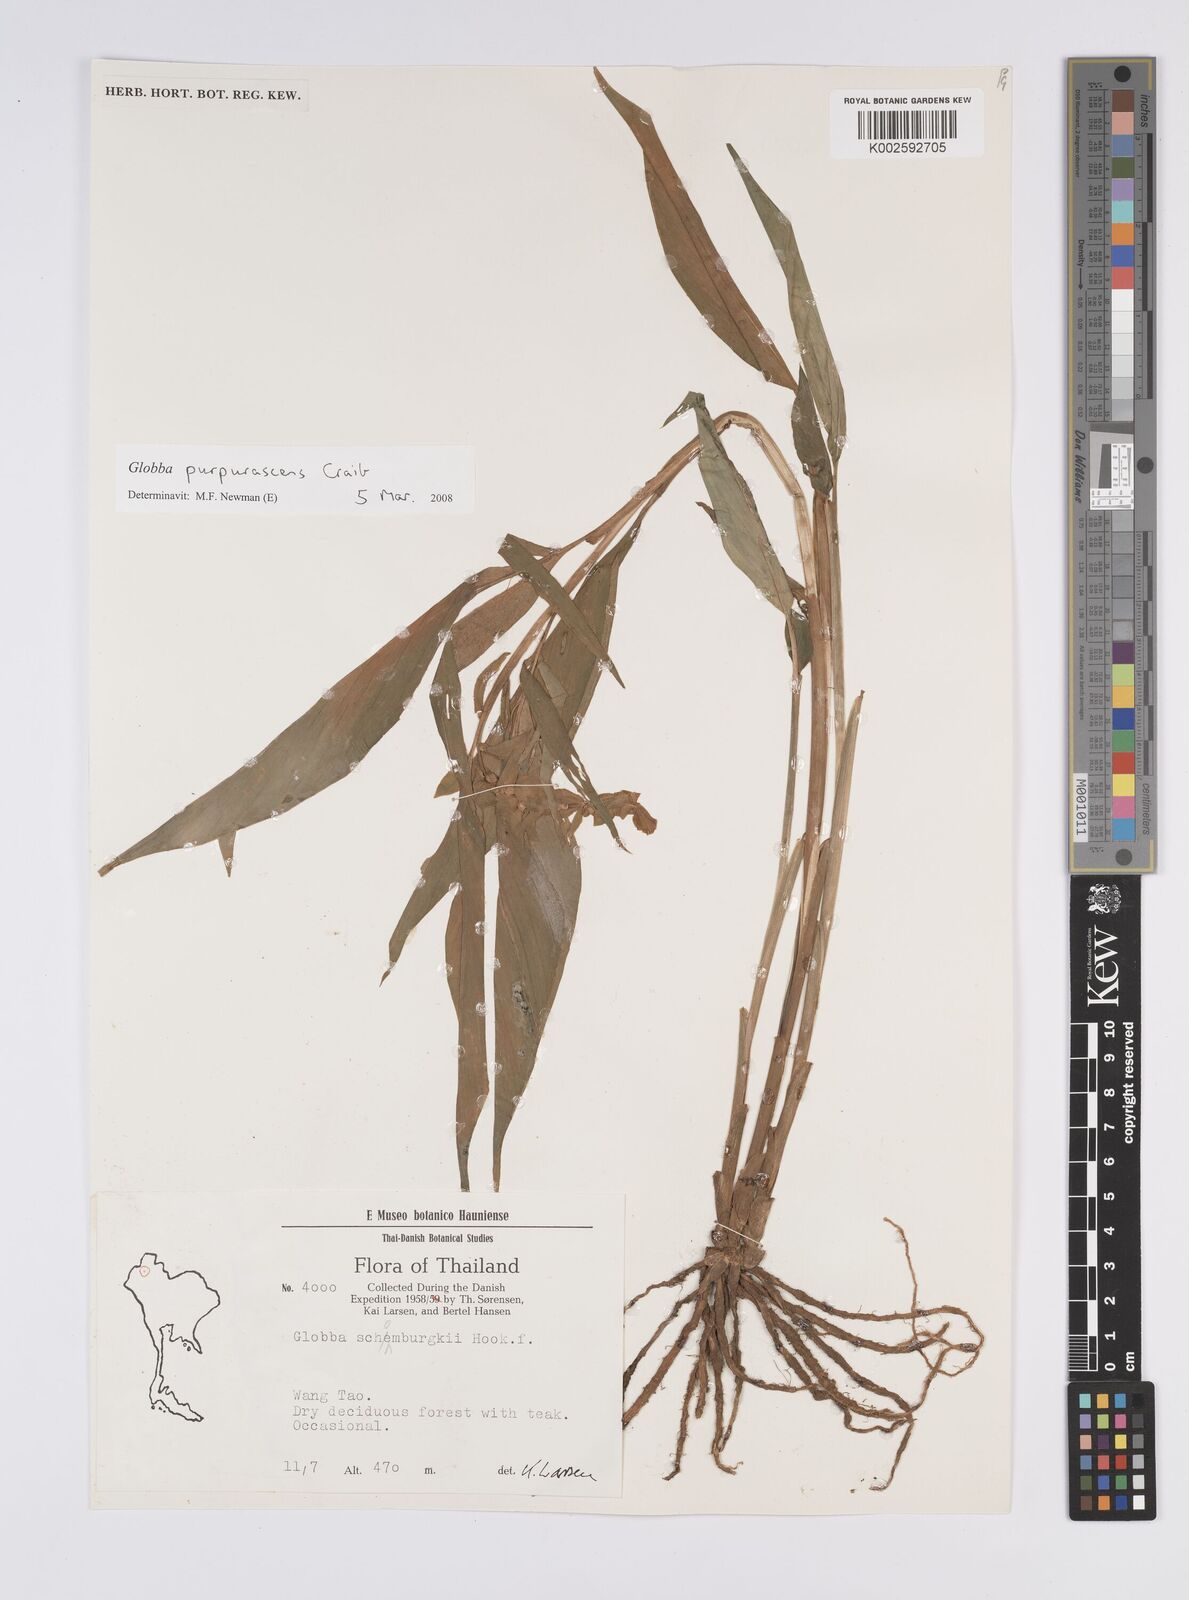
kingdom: Plantae
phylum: Tracheophyta
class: Liliopsida
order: Zingiberales
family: Zingiberaceae
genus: Globba
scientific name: Globba purpurascens
